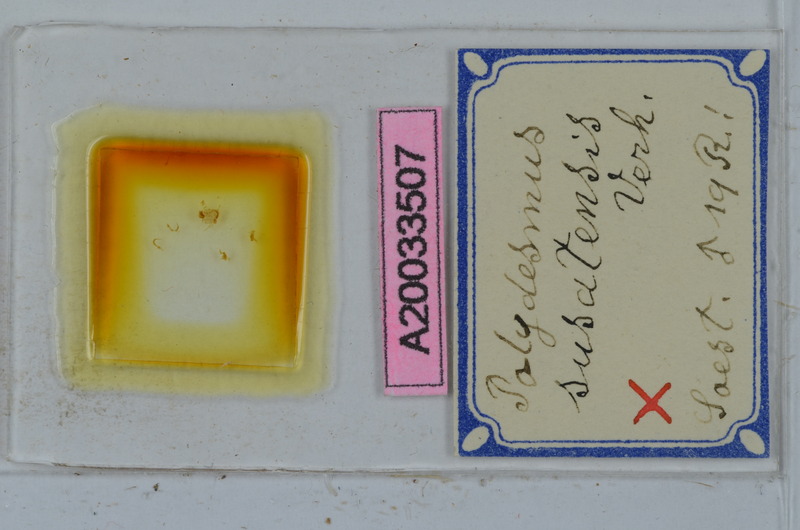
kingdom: Animalia
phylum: Arthropoda
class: Diplopoda
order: Polydesmida
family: Polydesmidae
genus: Polydesmus
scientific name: Polydesmus susatensis
